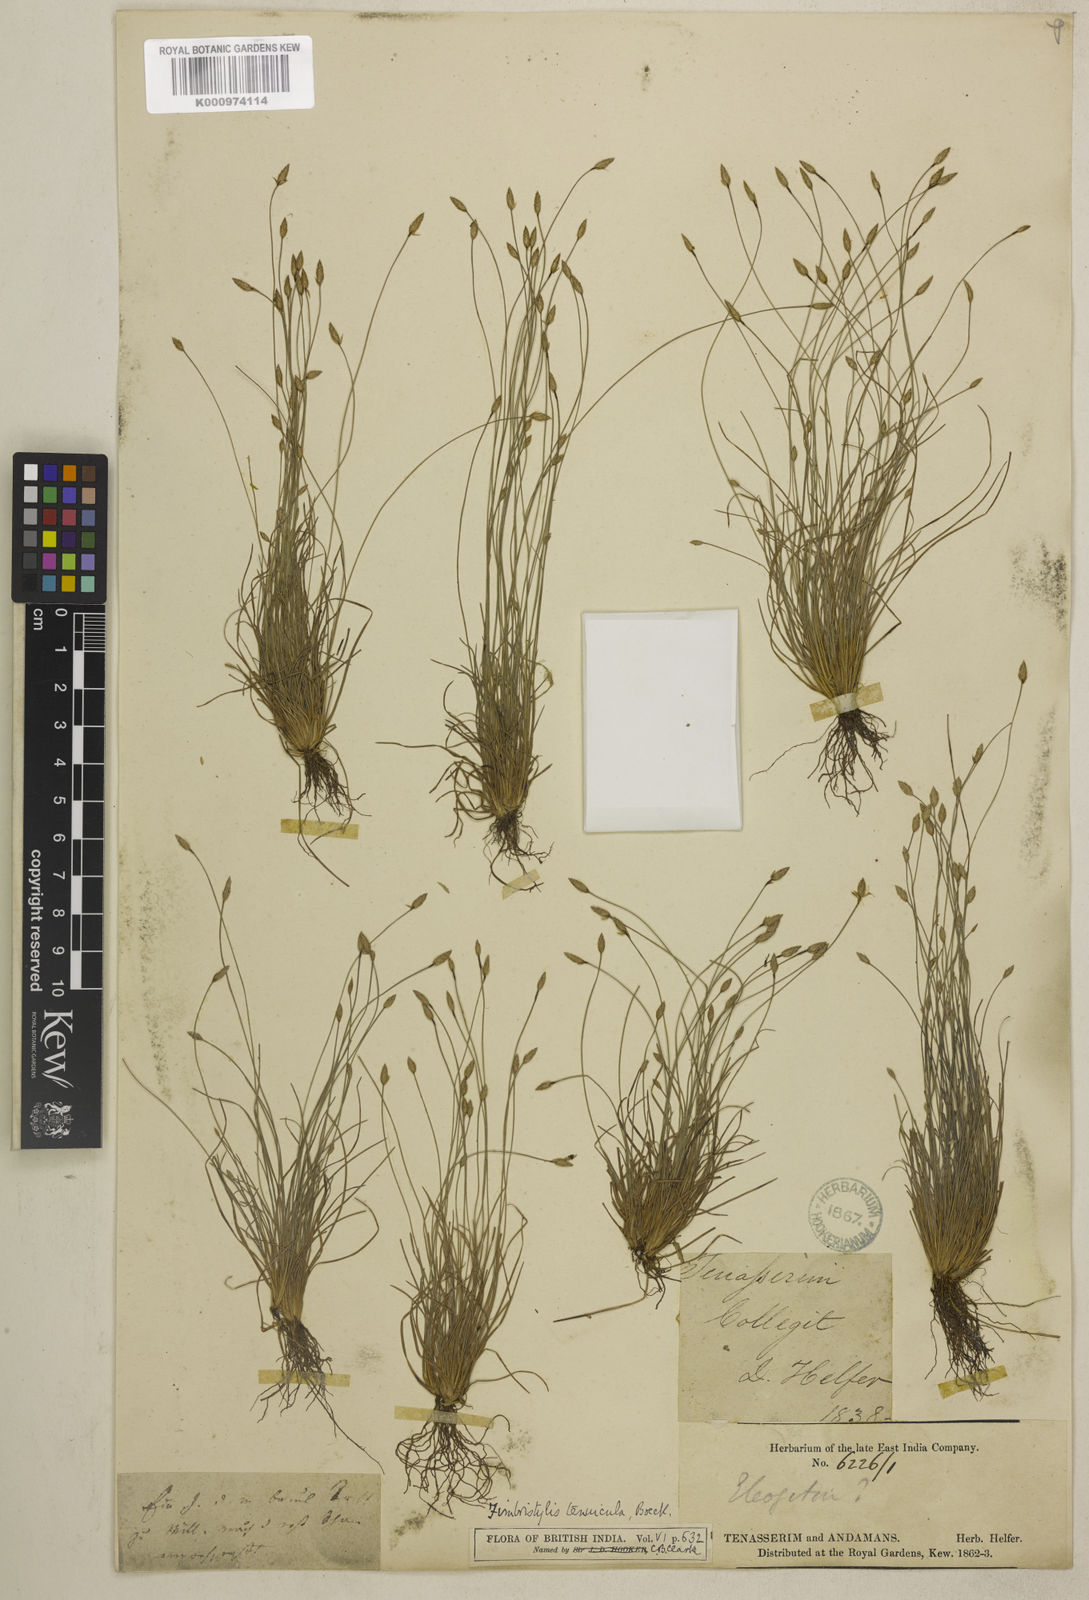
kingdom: Plantae
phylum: Tracheophyta
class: Liliopsida
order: Poales
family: Cyperaceae
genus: Fimbristylis
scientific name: Fimbristylis tenuicula
